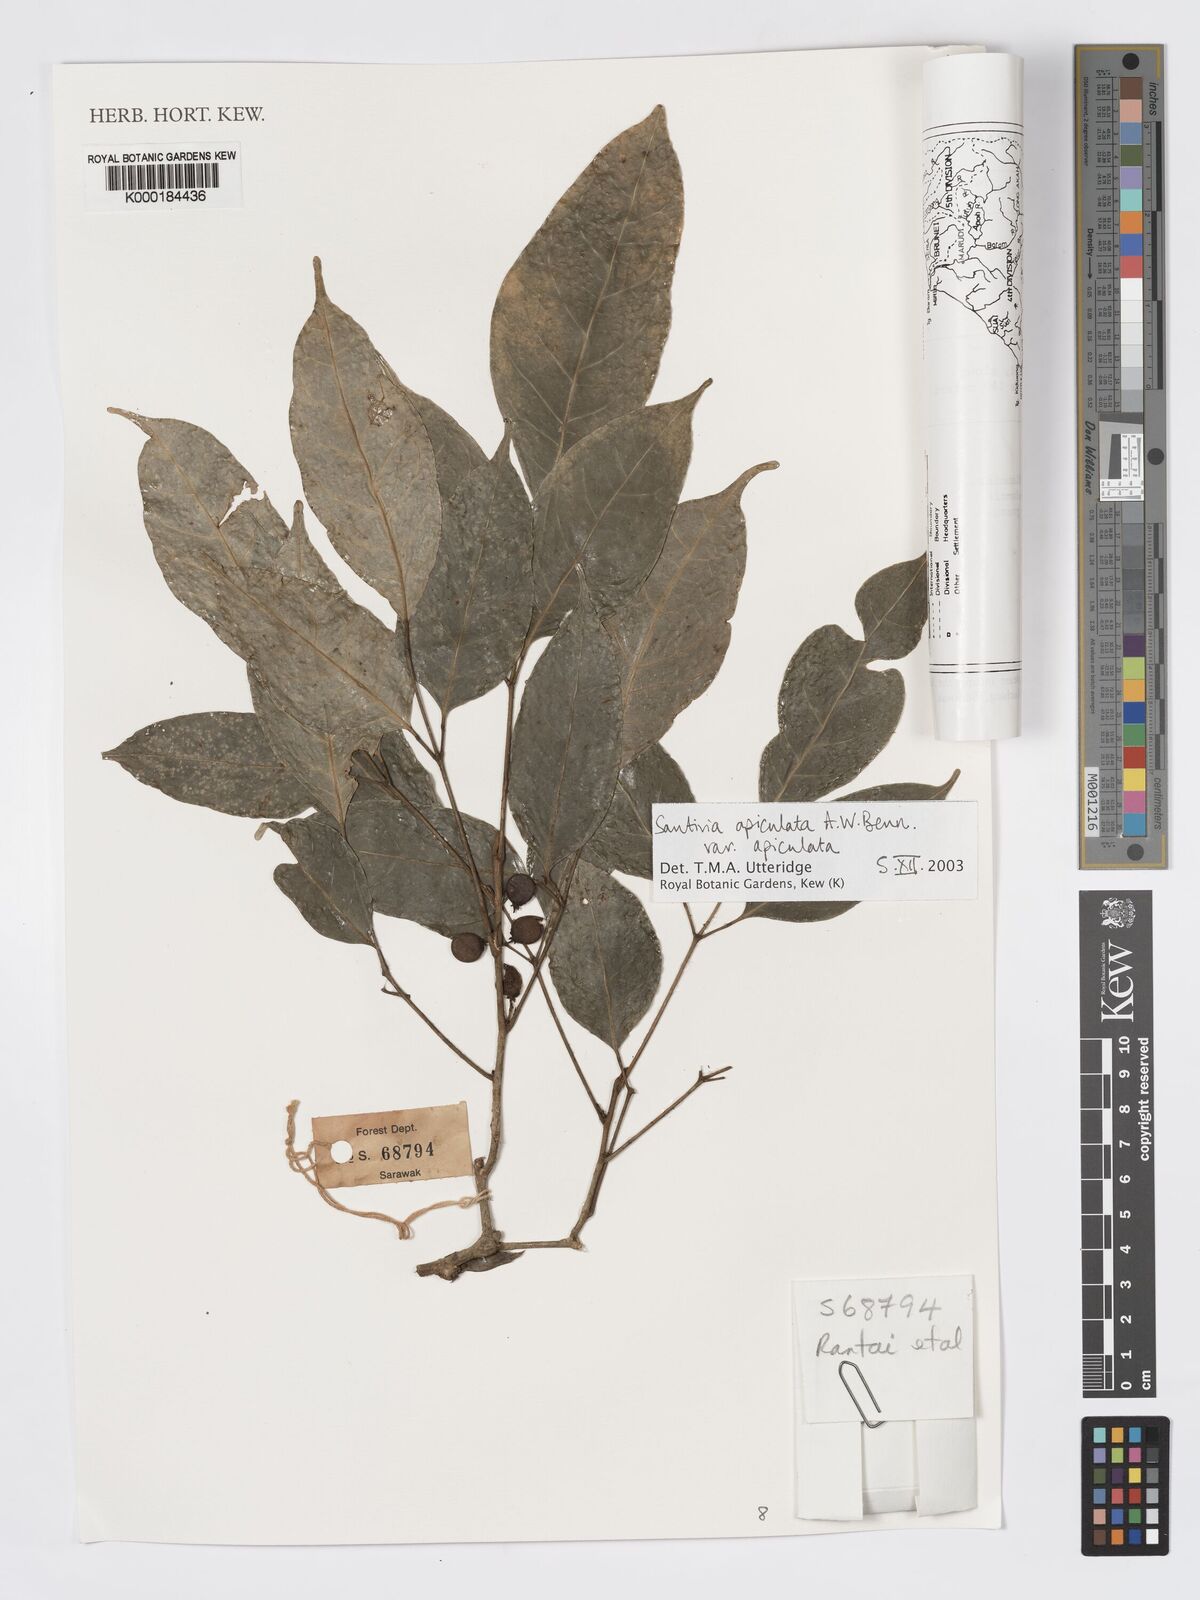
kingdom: Plantae
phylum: Tracheophyta
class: Magnoliopsida
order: Sapindales
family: Burseraceae
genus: Santiria
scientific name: Santiria apiculata
